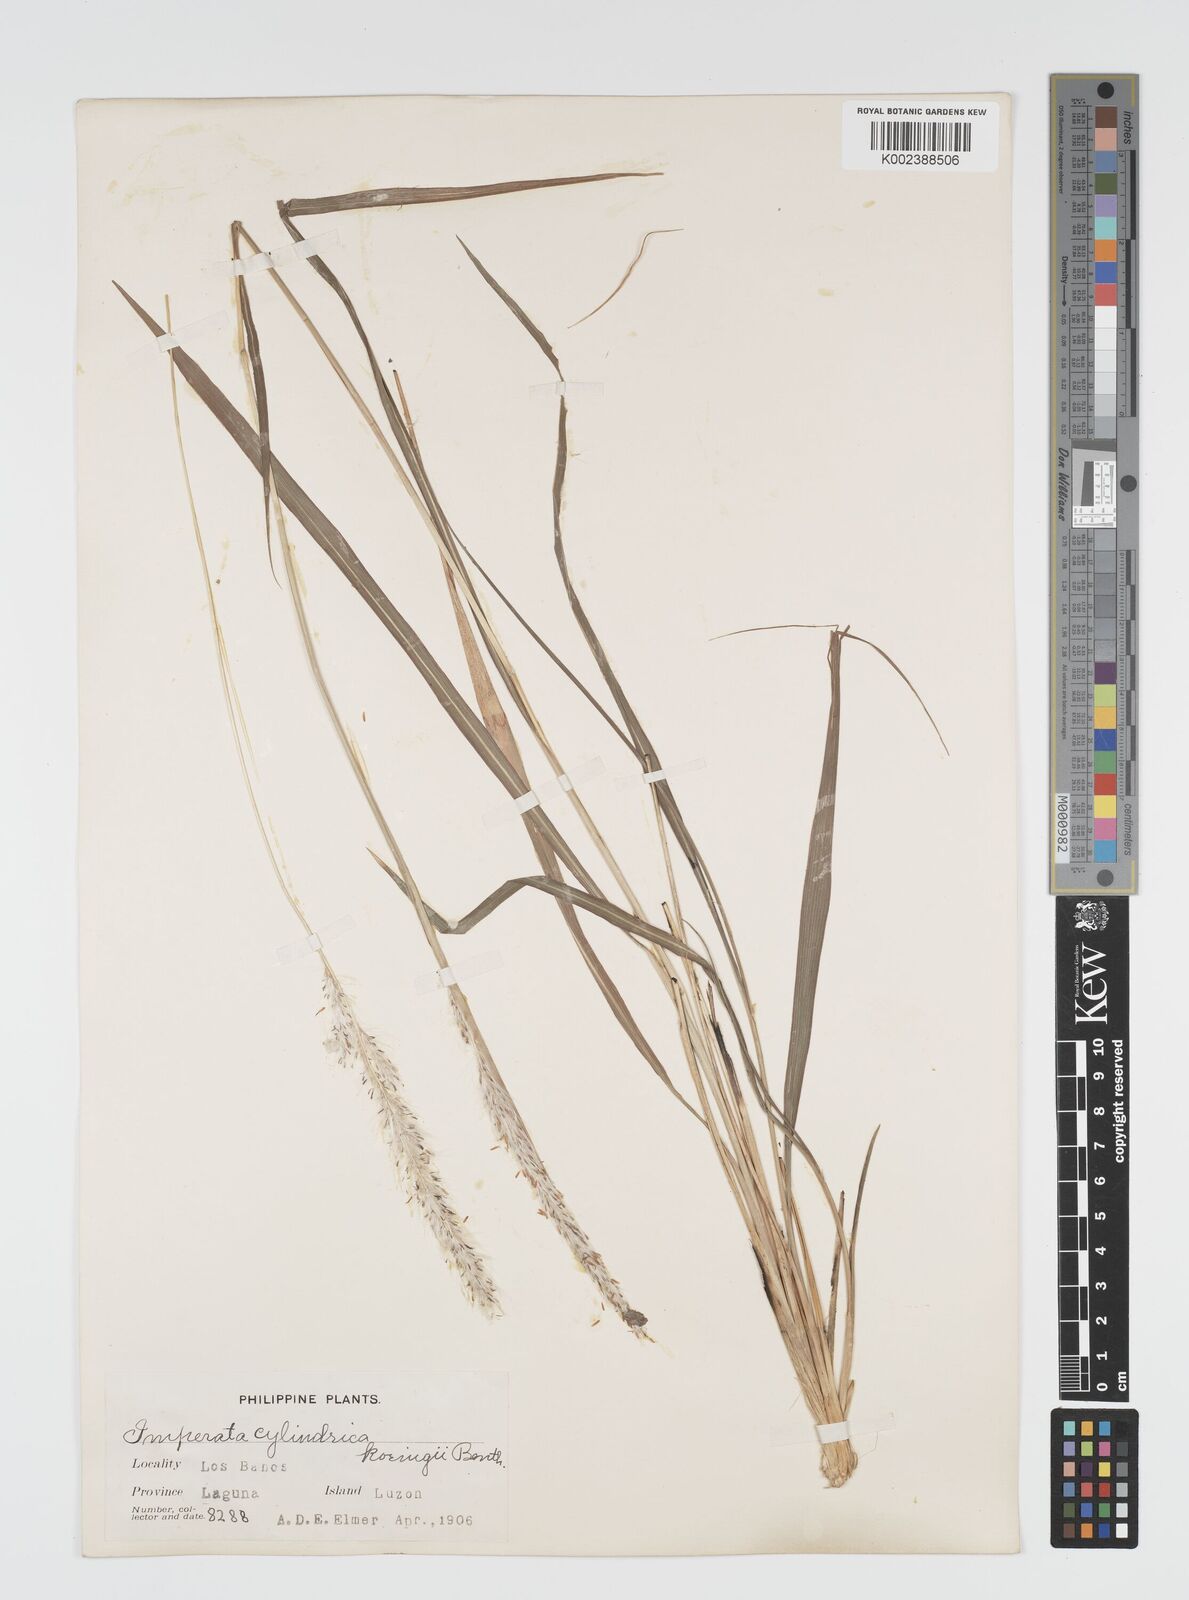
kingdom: Plantae
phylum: Tracheophyta
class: Liliopsida
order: Poales
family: Poaceae
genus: Imperata
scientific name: Imperata cylindrica
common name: Cogongrass
